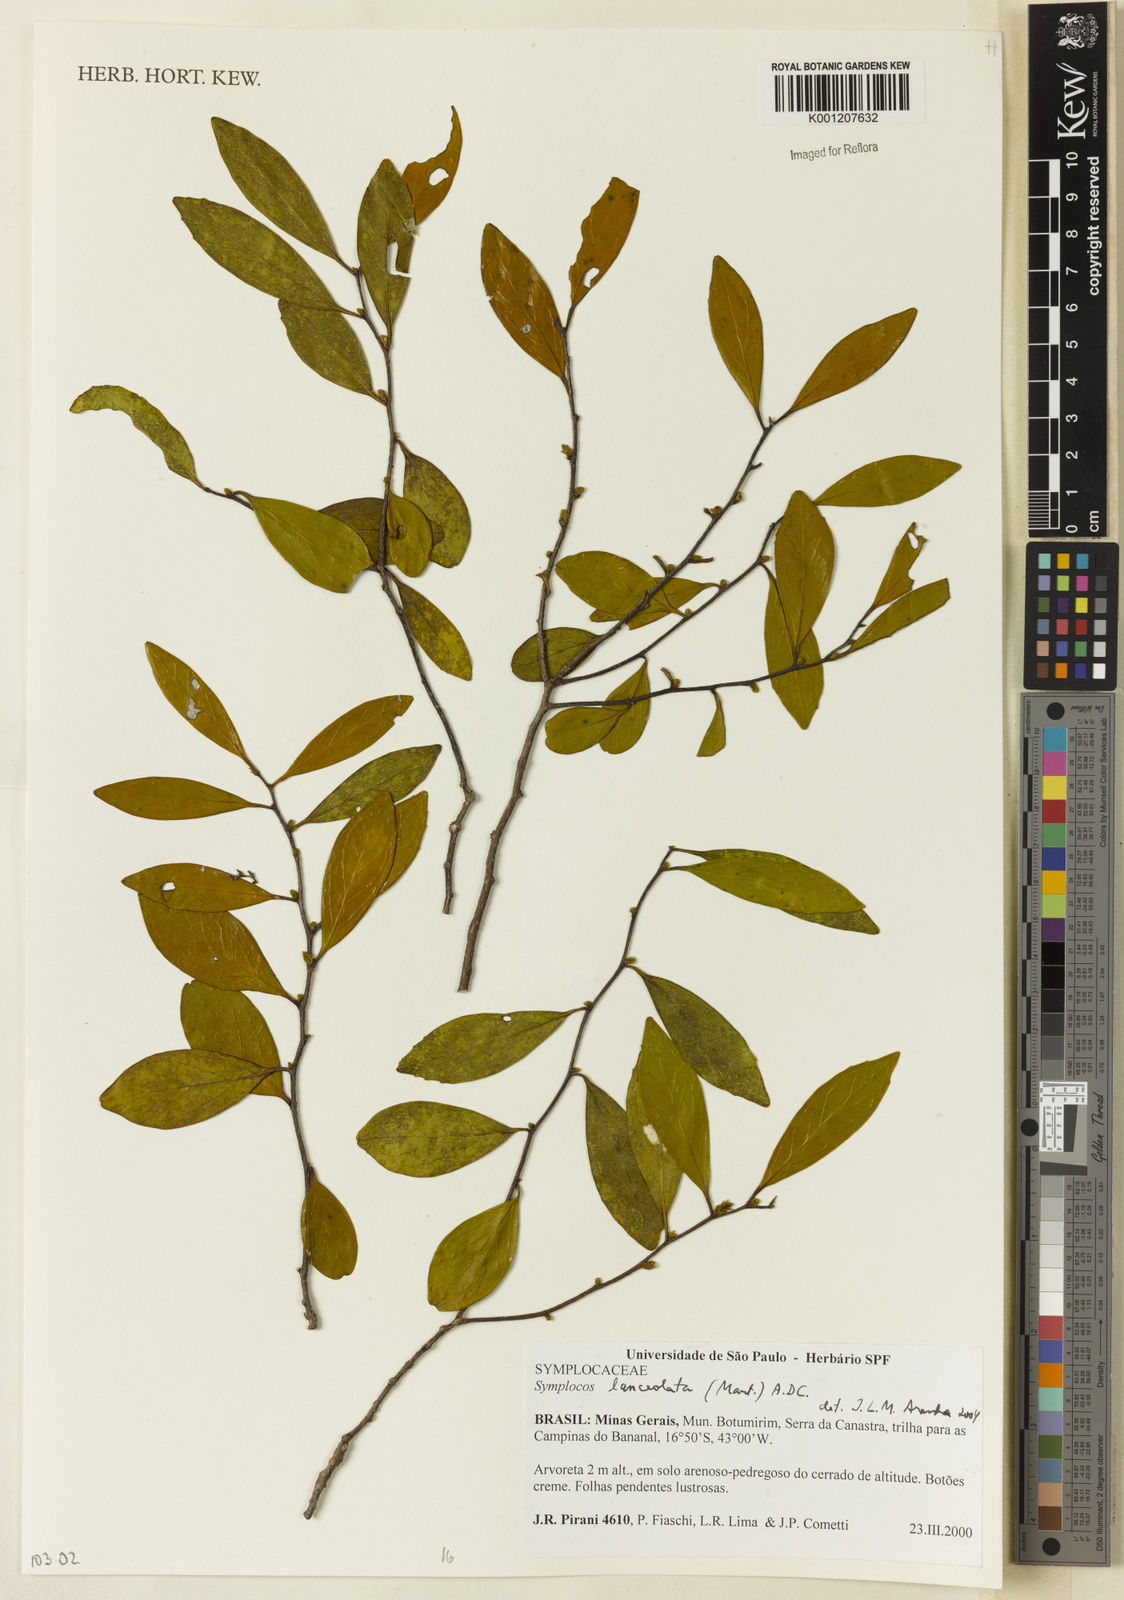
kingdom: Plantae
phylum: Tracheophyta
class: Magnoliopsida
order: Ericales
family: Symplocaceae
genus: Symplocos
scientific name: Symplocos oblongifolia
